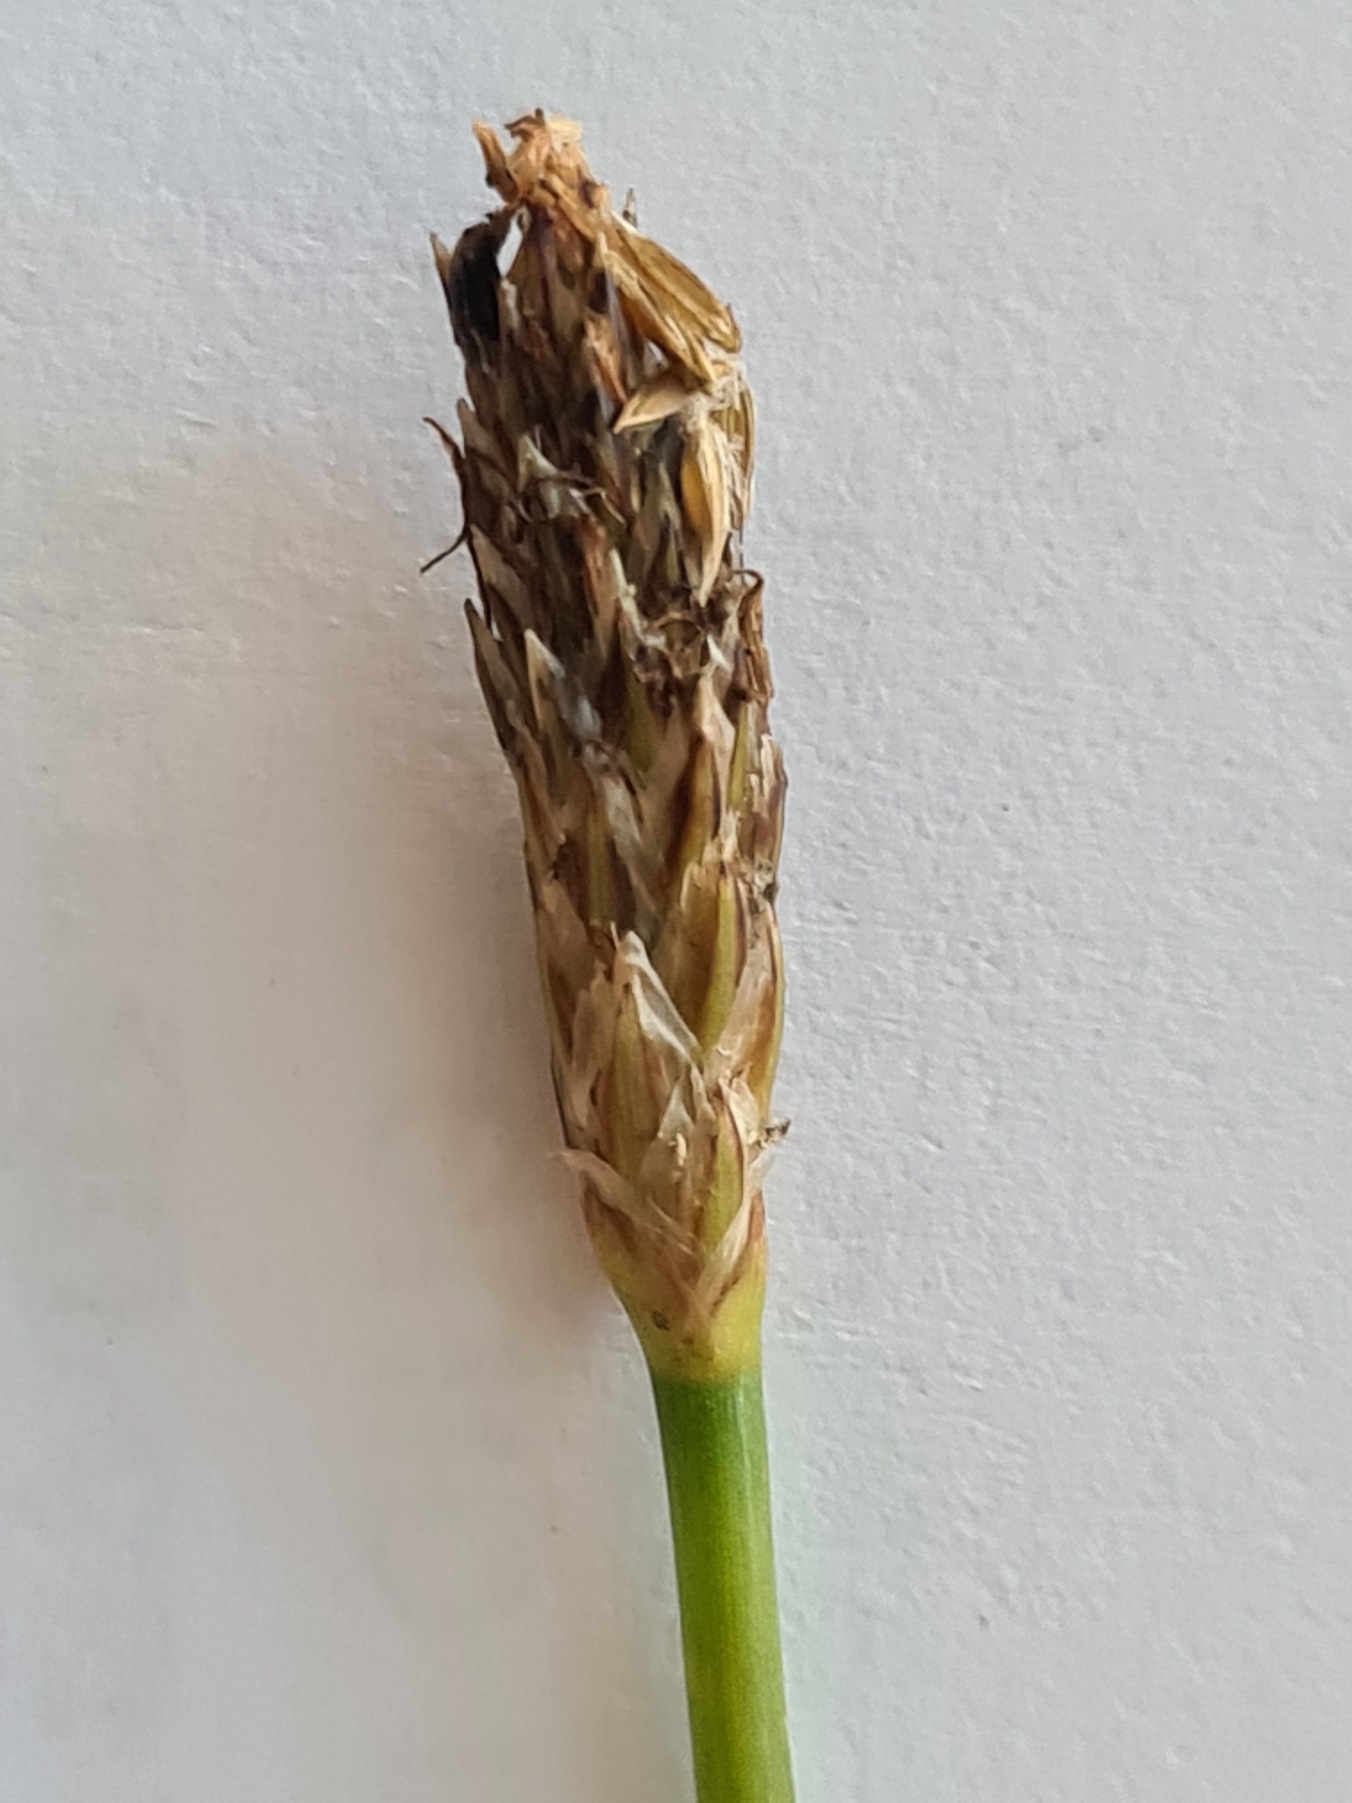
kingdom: Plantae
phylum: Tracheophyta
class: Liliopsida
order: Poales
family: Cyperaceae
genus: Eleocharis
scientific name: Eleocharis palustris
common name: Almindelig sumpstrå
